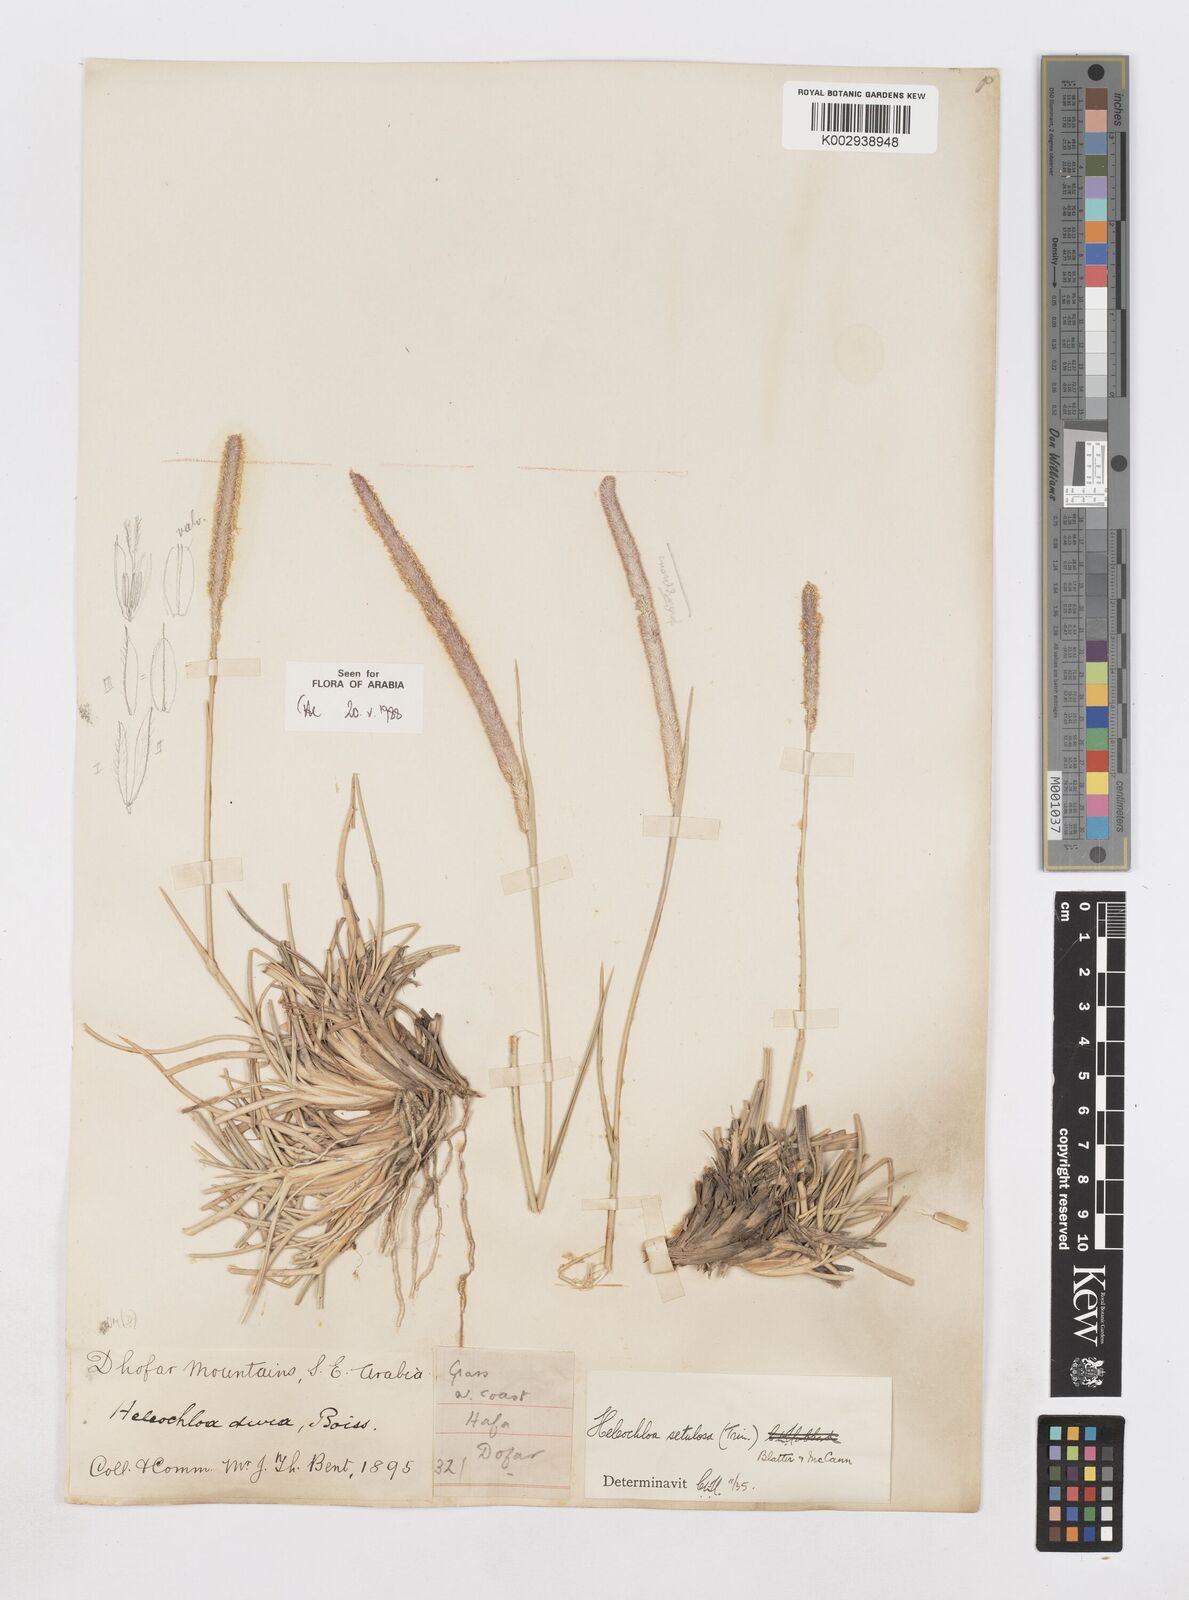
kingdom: Plantae
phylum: Tracheophyta
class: Liliopsida
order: Poales
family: Poaceae
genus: Urochondra
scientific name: Urochondra setulosa
